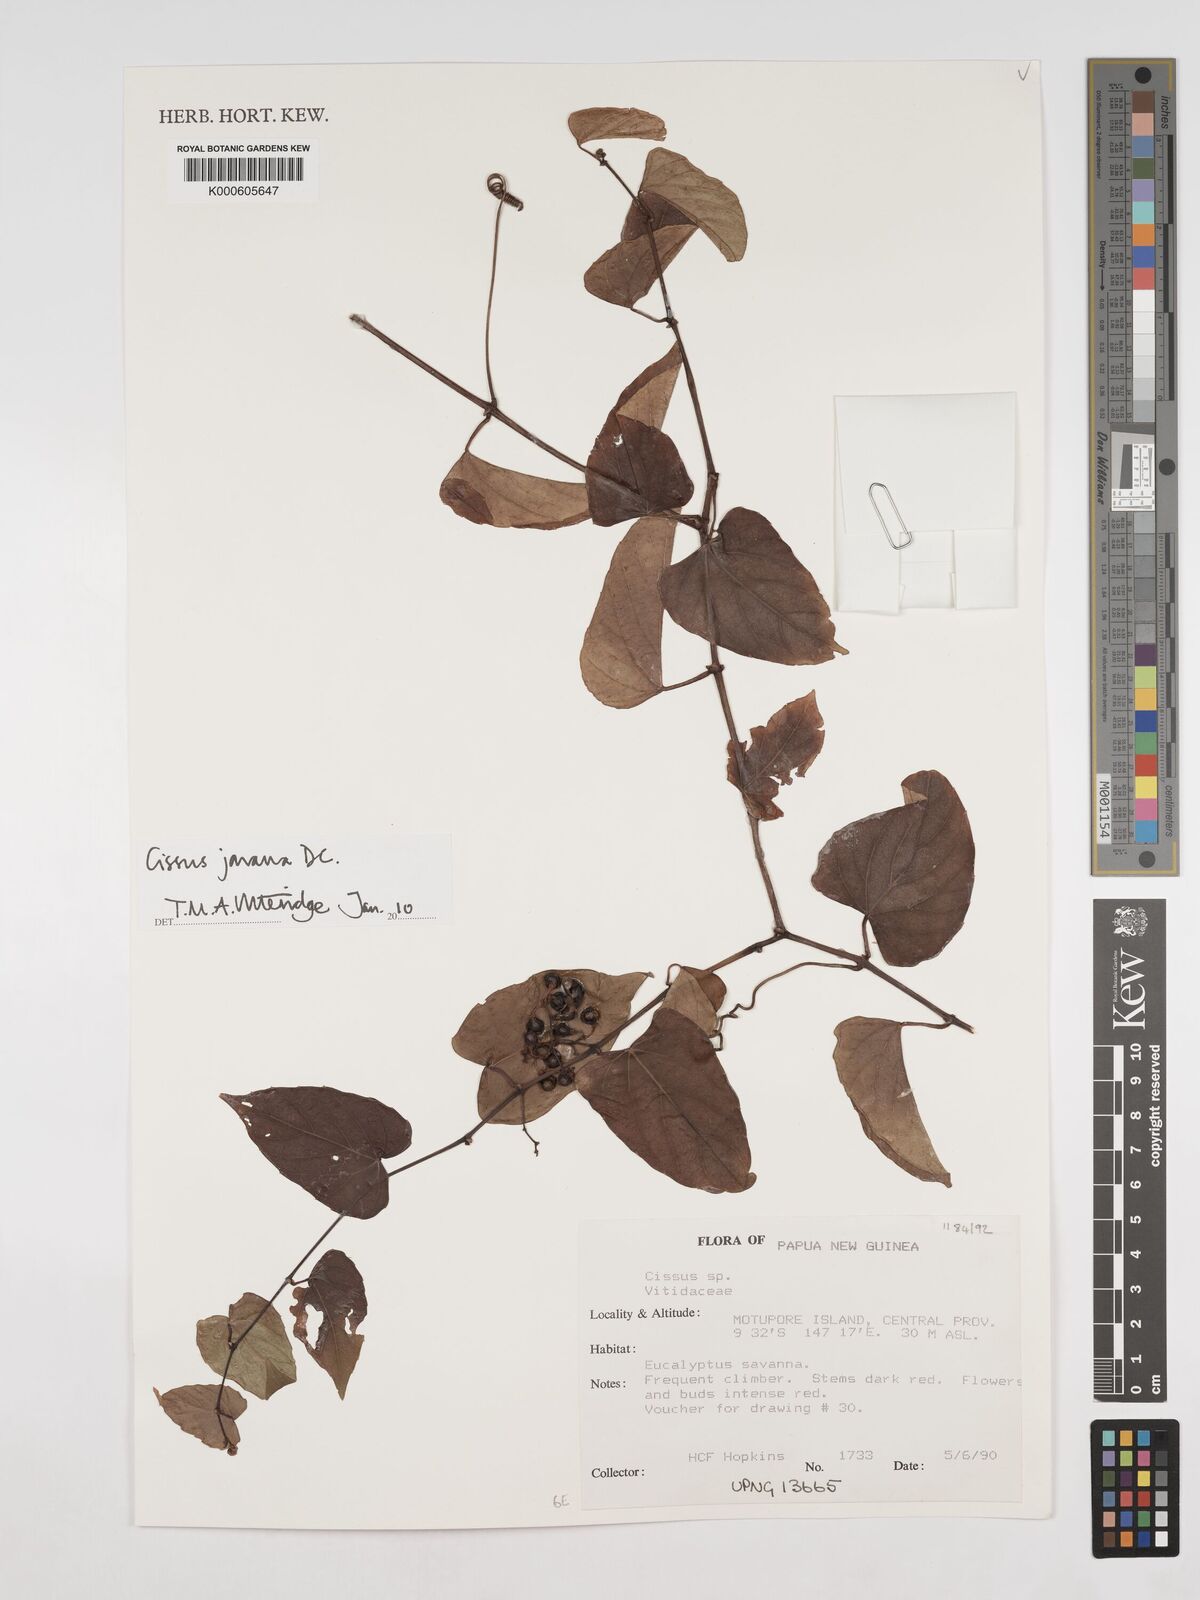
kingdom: Plantae
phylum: Tracheophyta
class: Magnoliopsida
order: Vitales
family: Vitaceae
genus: Cissus
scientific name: Cissus discolor
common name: Climbing-begonia
